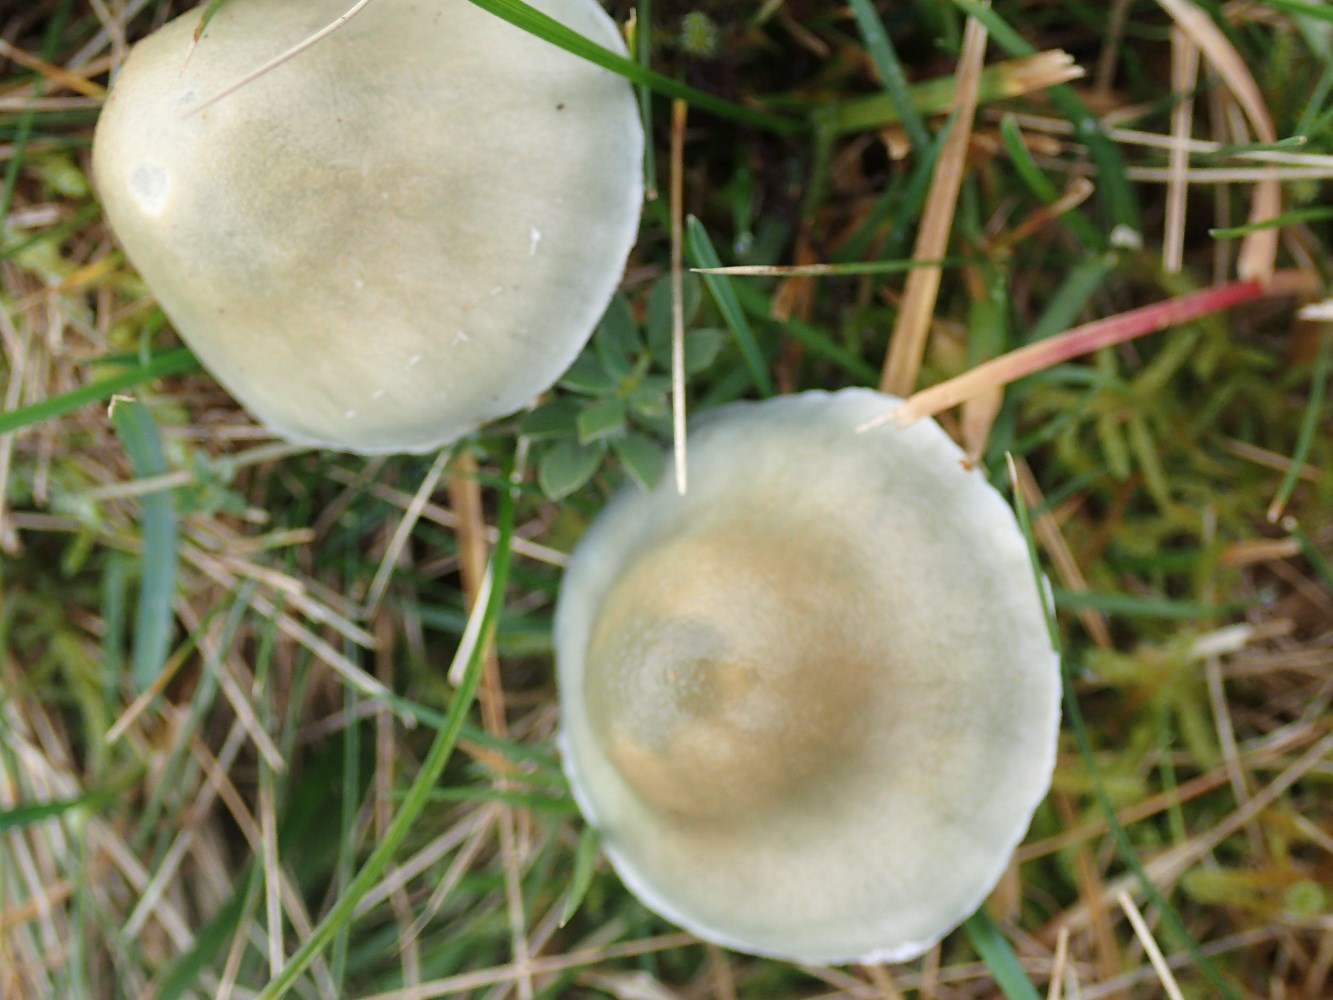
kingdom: Fungi
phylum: Basidiomycota
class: Agaricomycetes
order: Agaricales
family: Strophariaceae
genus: Stropharia
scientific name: Stropharia cyanea
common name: blågrøn bredblad
